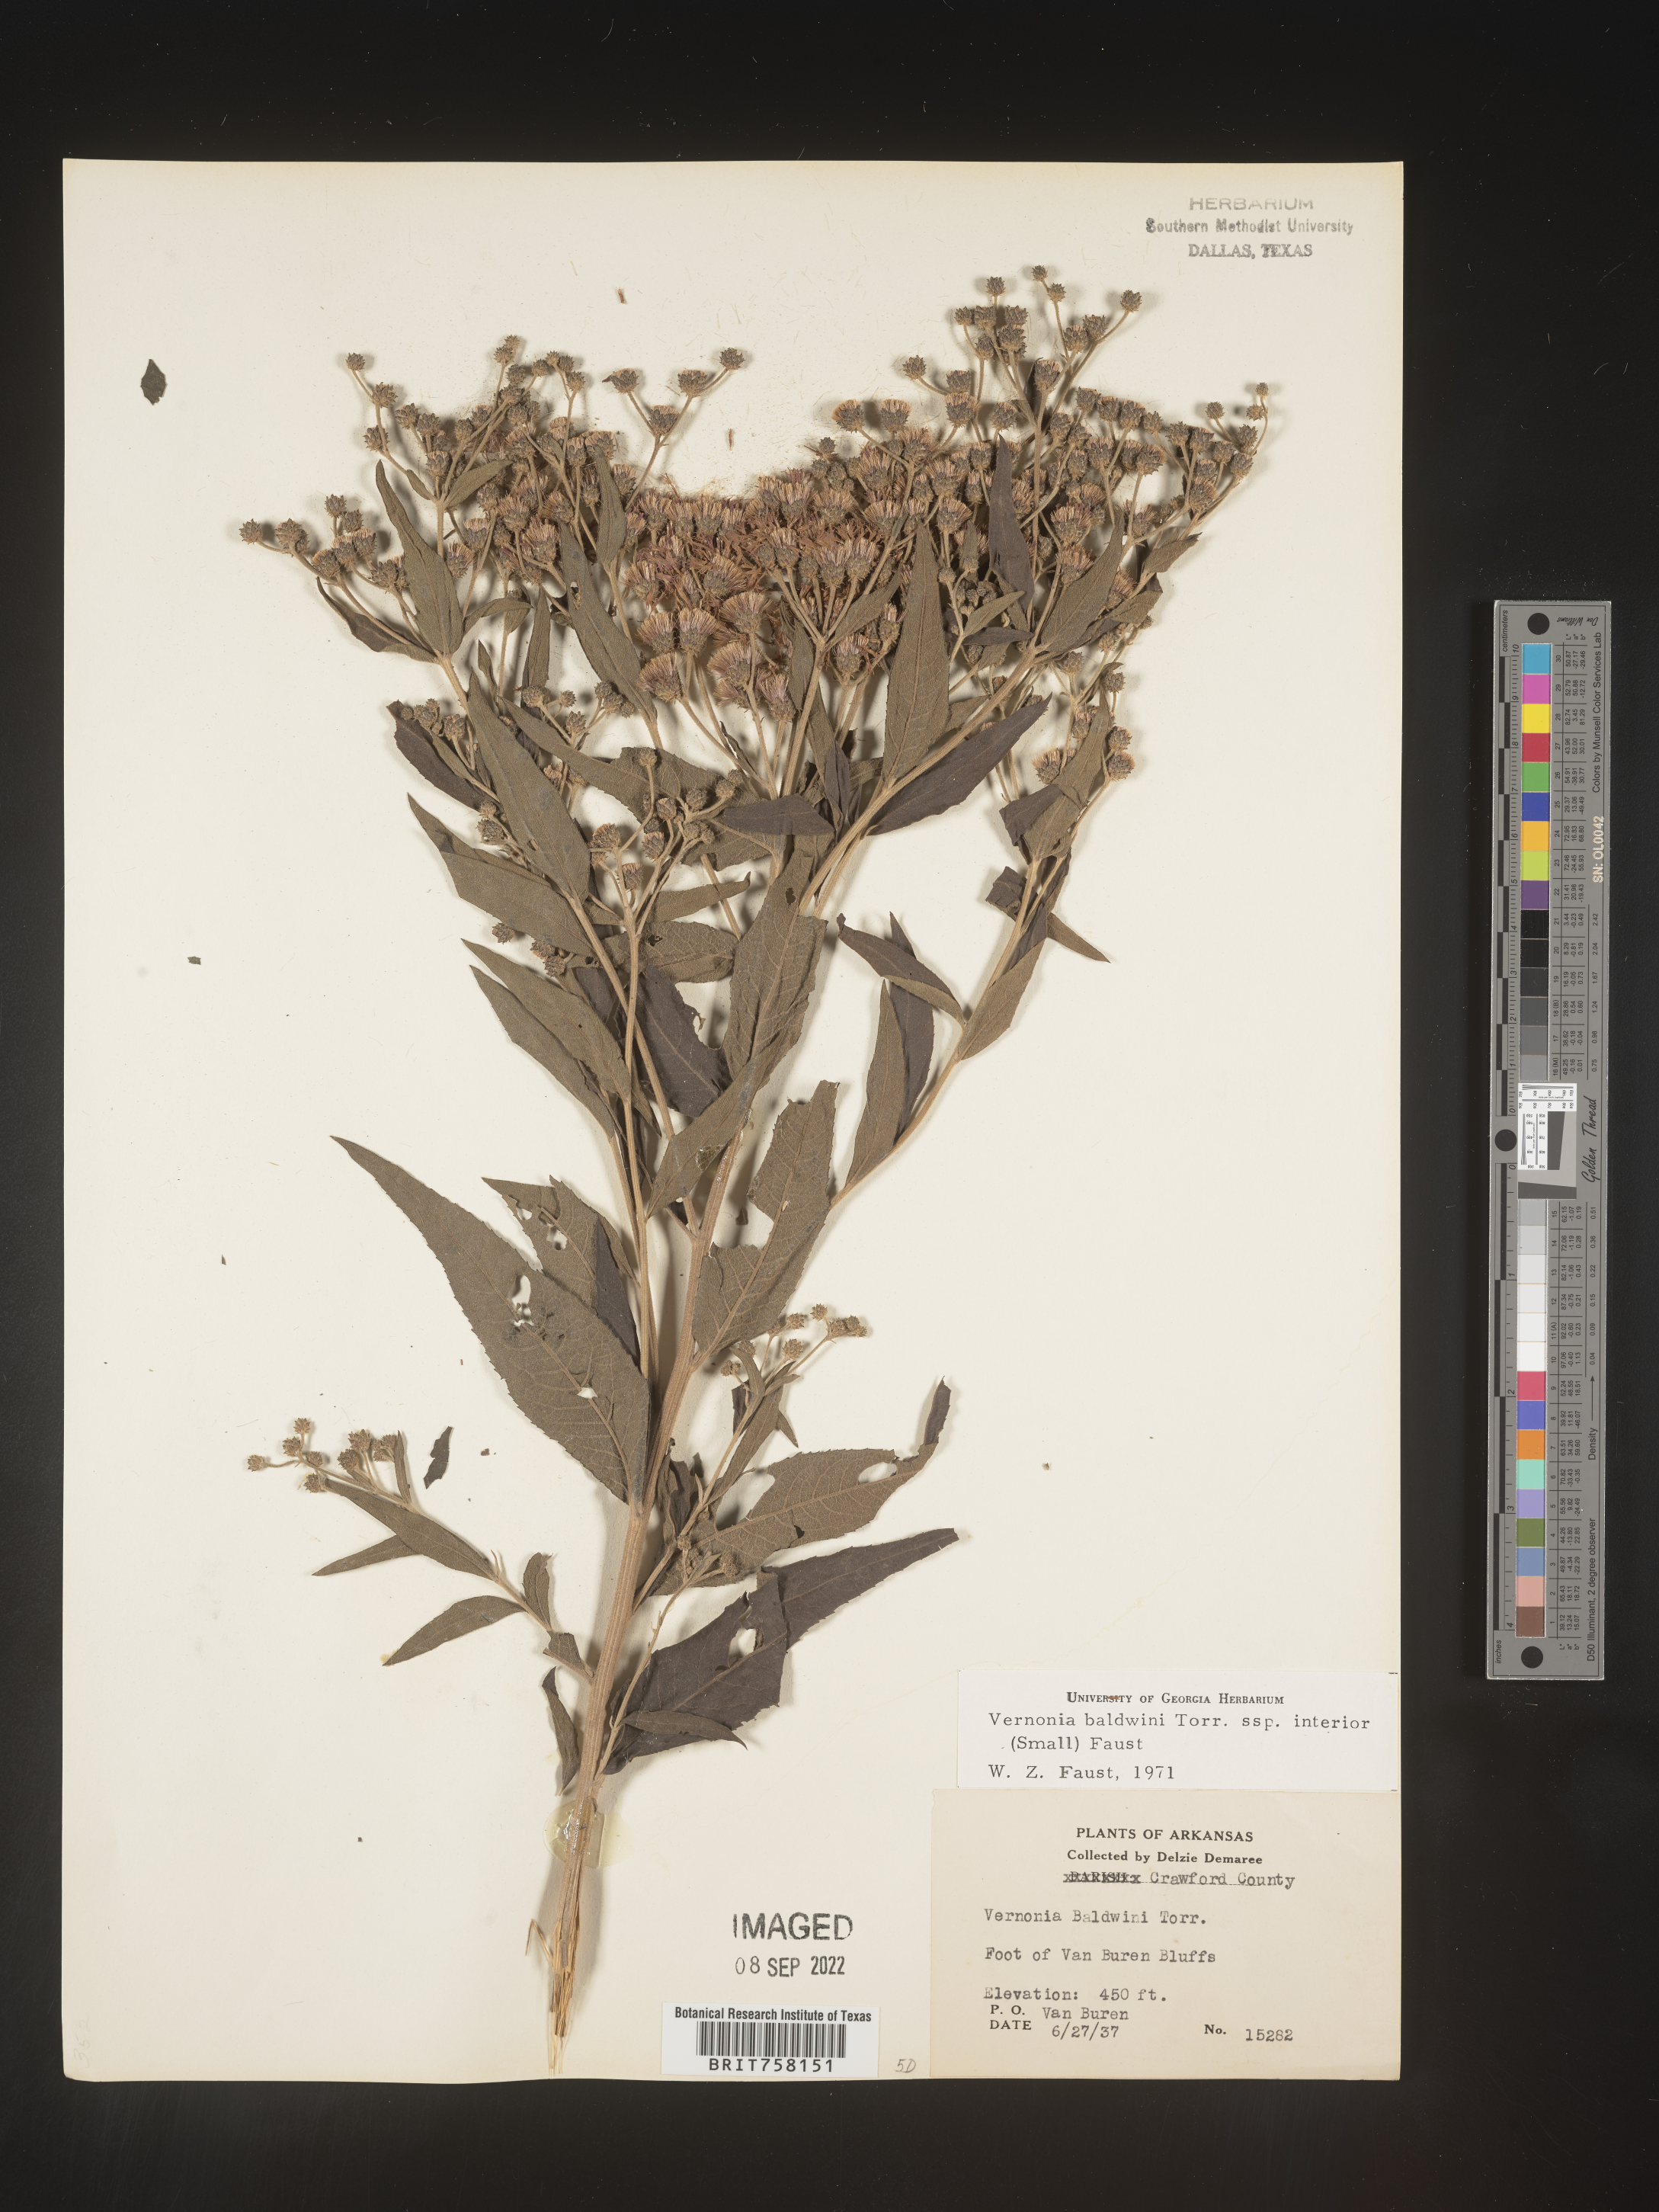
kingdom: Plantae
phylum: Tracheophyta
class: Magnoliopsida
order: Asterales
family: Asteraceae
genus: Vernonia
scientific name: Vernonia baldwinii
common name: Western ironweed
